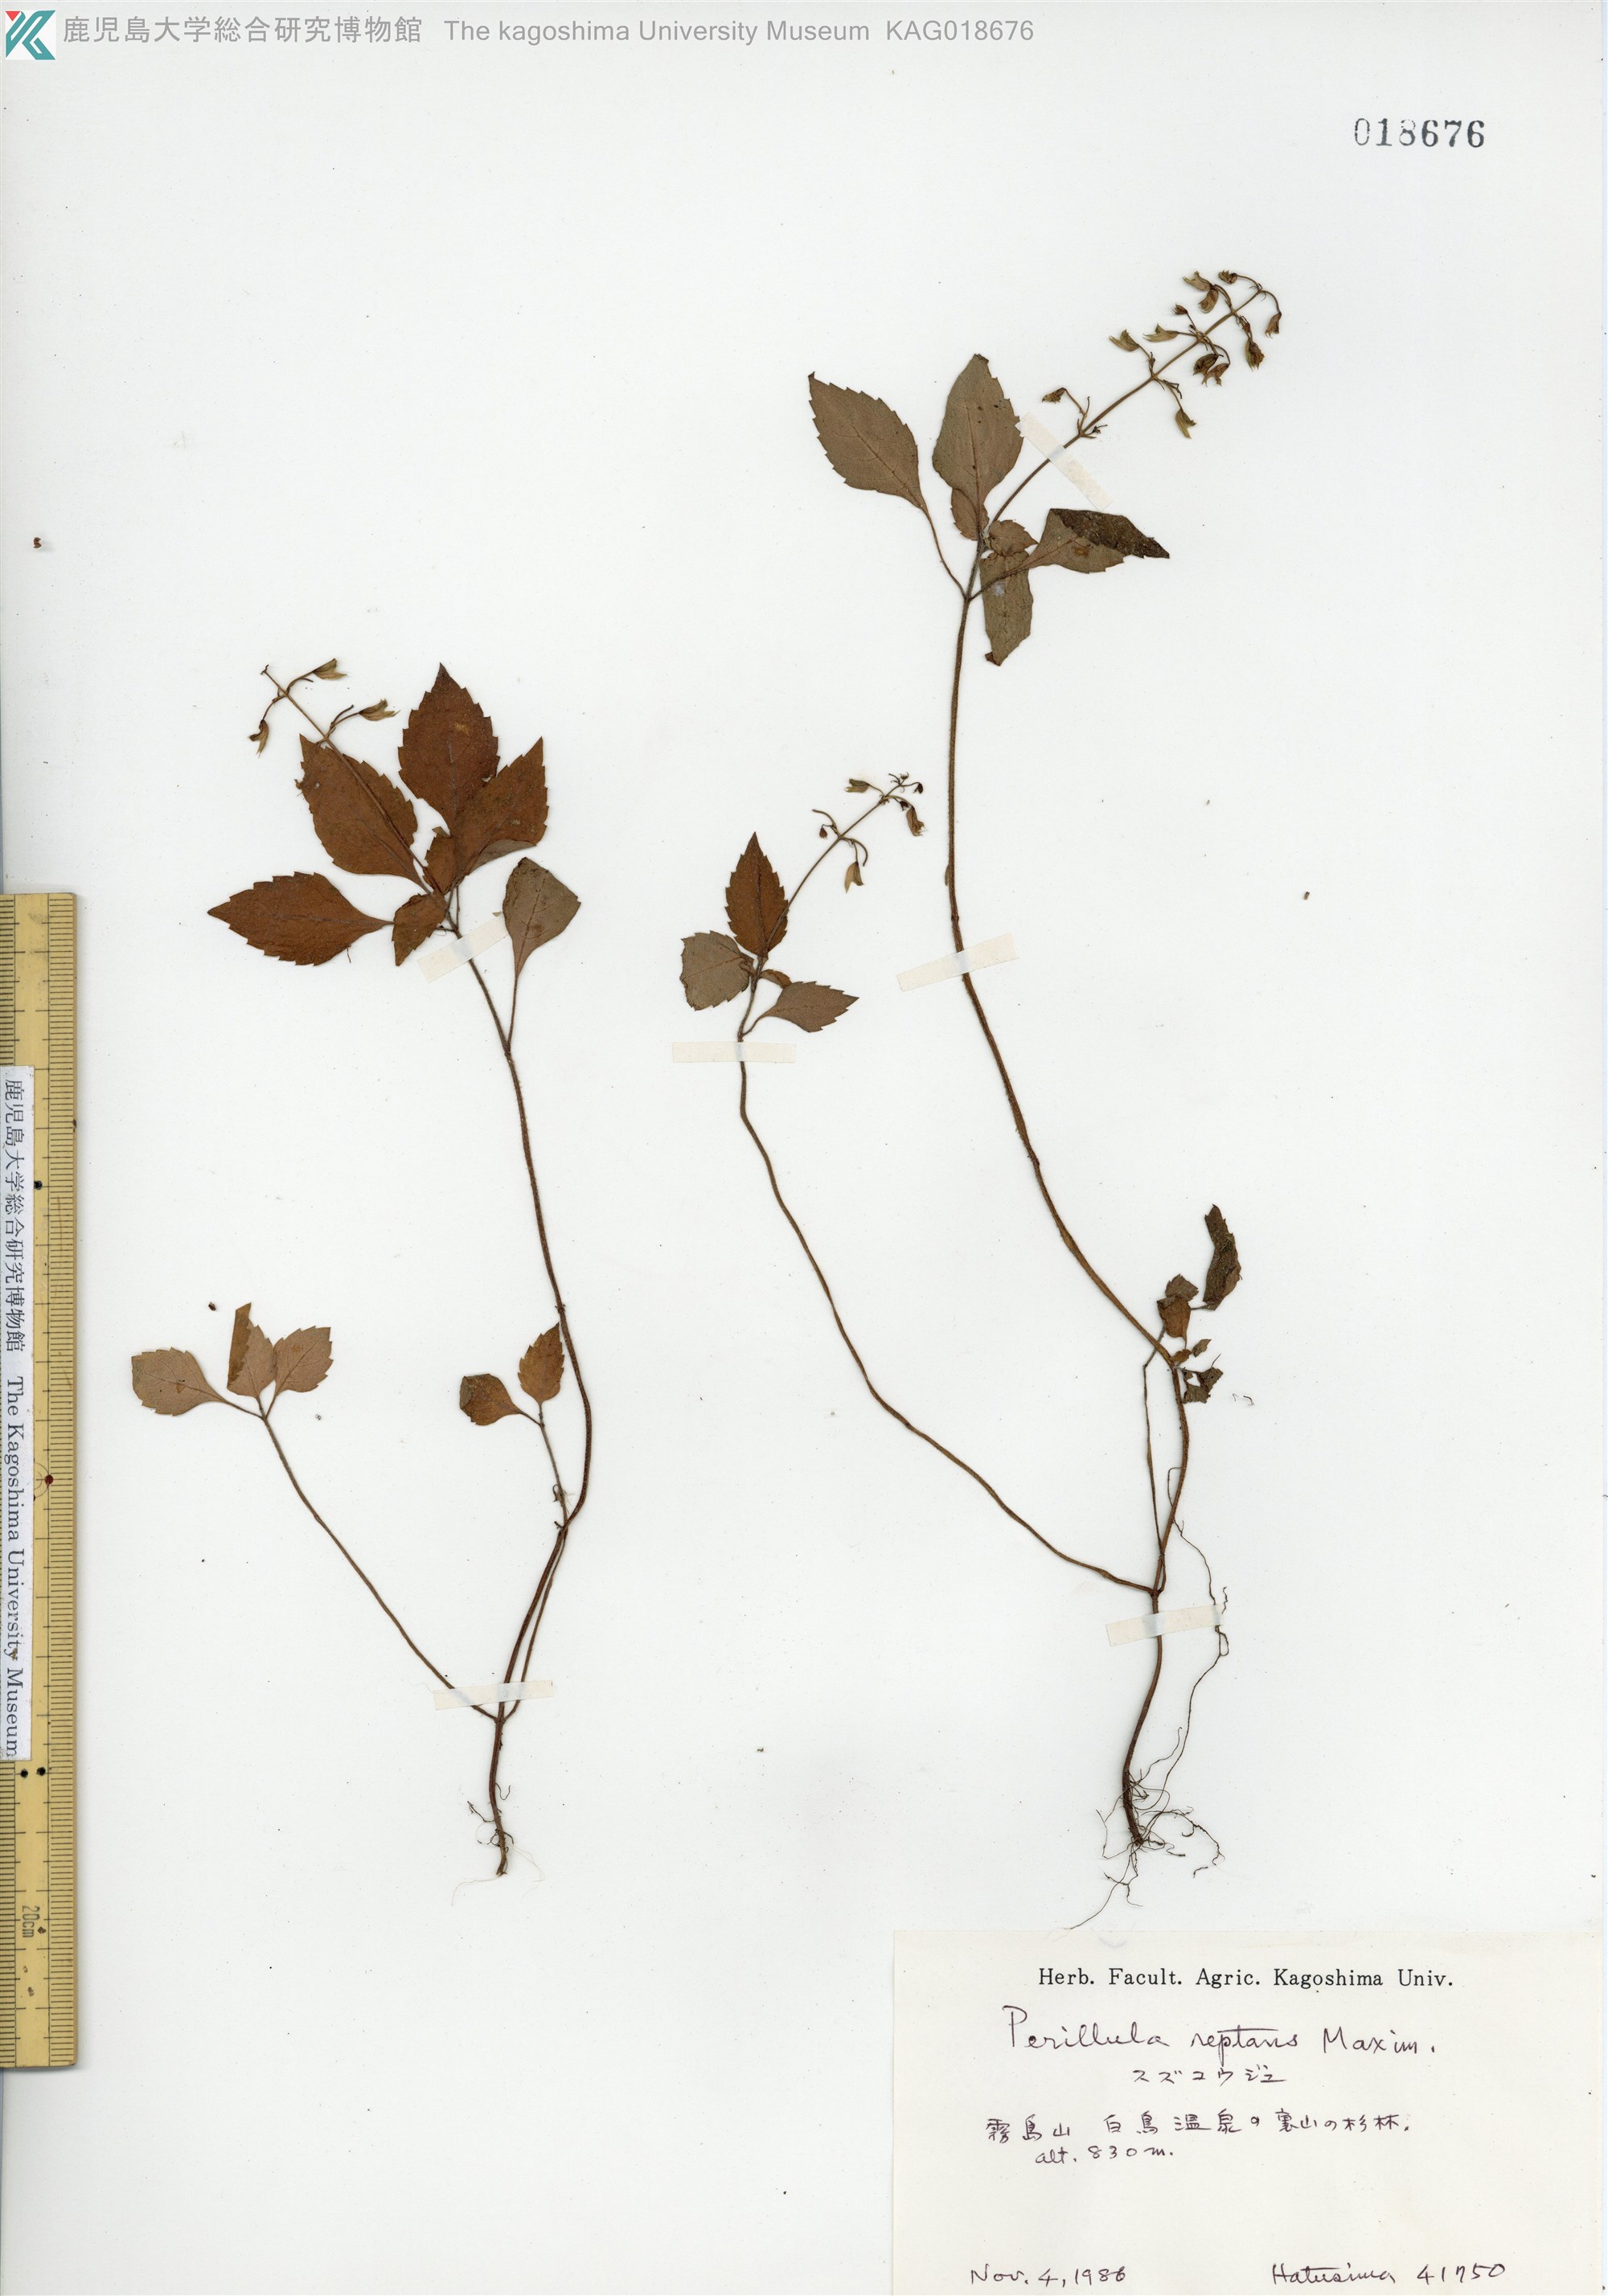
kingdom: Plantae
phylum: Tracheophyta
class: Magnoliopsida
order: Lamiales
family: Lamiaceae
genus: Perillula
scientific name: Perillula reptans
